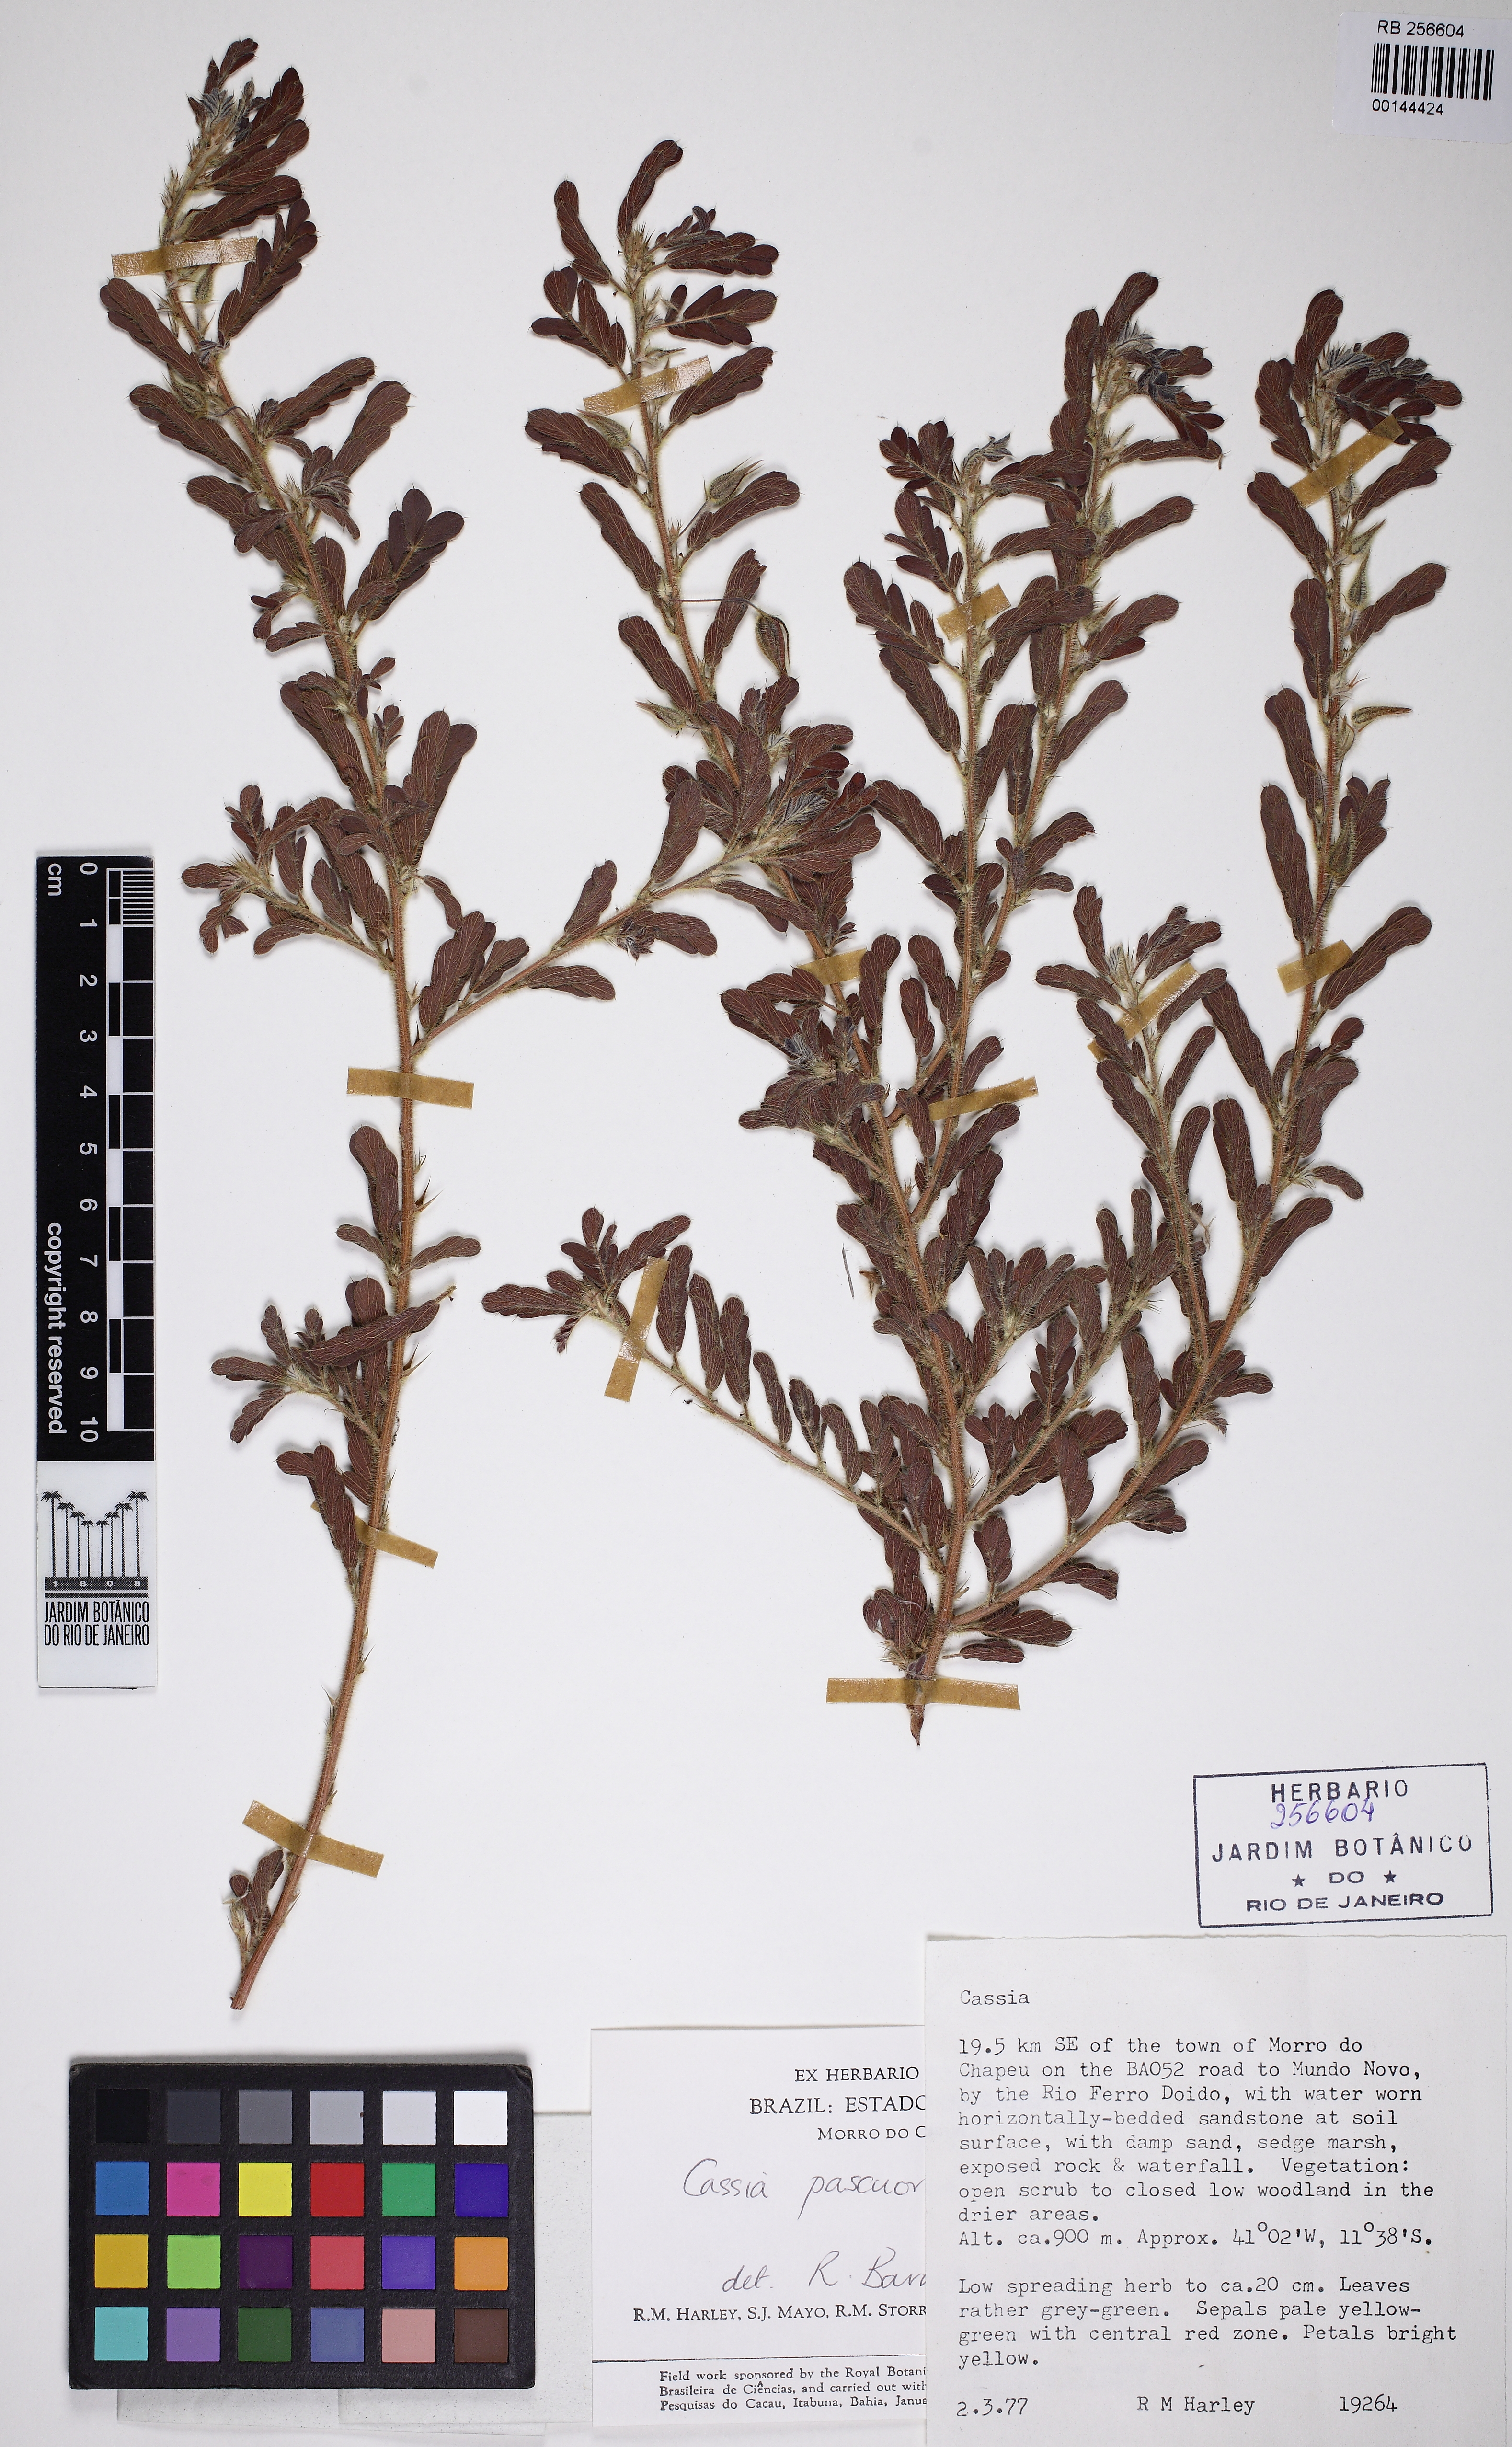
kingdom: Plantae
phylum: Tracheophyta
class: Magnoliopsida
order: Fabales
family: Fabaceae
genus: Chamaecrista
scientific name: Chamaecrista pascuorum
